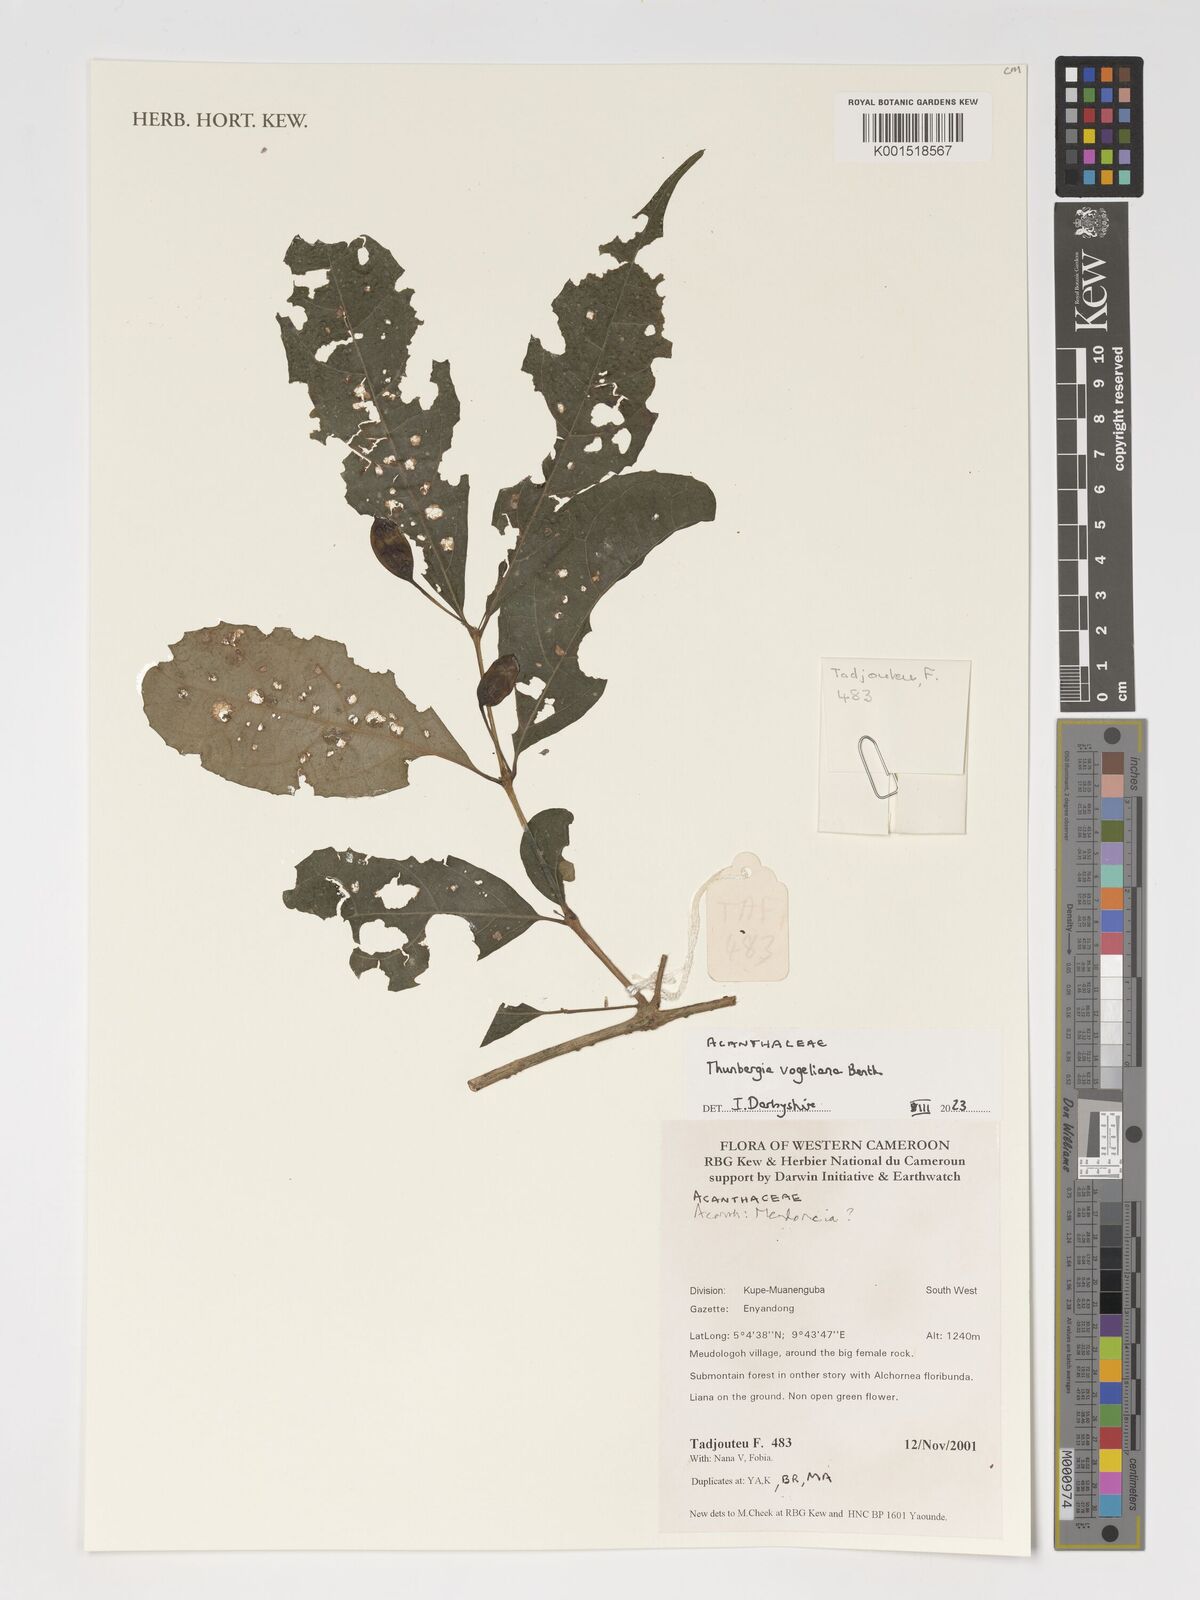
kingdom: Plantae
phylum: Tracheophyta
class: Magnoliopsida
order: Lamiales
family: Acanthaceae
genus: Thunbergia
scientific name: Thunbergia vogeliana
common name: Acanthaceae
